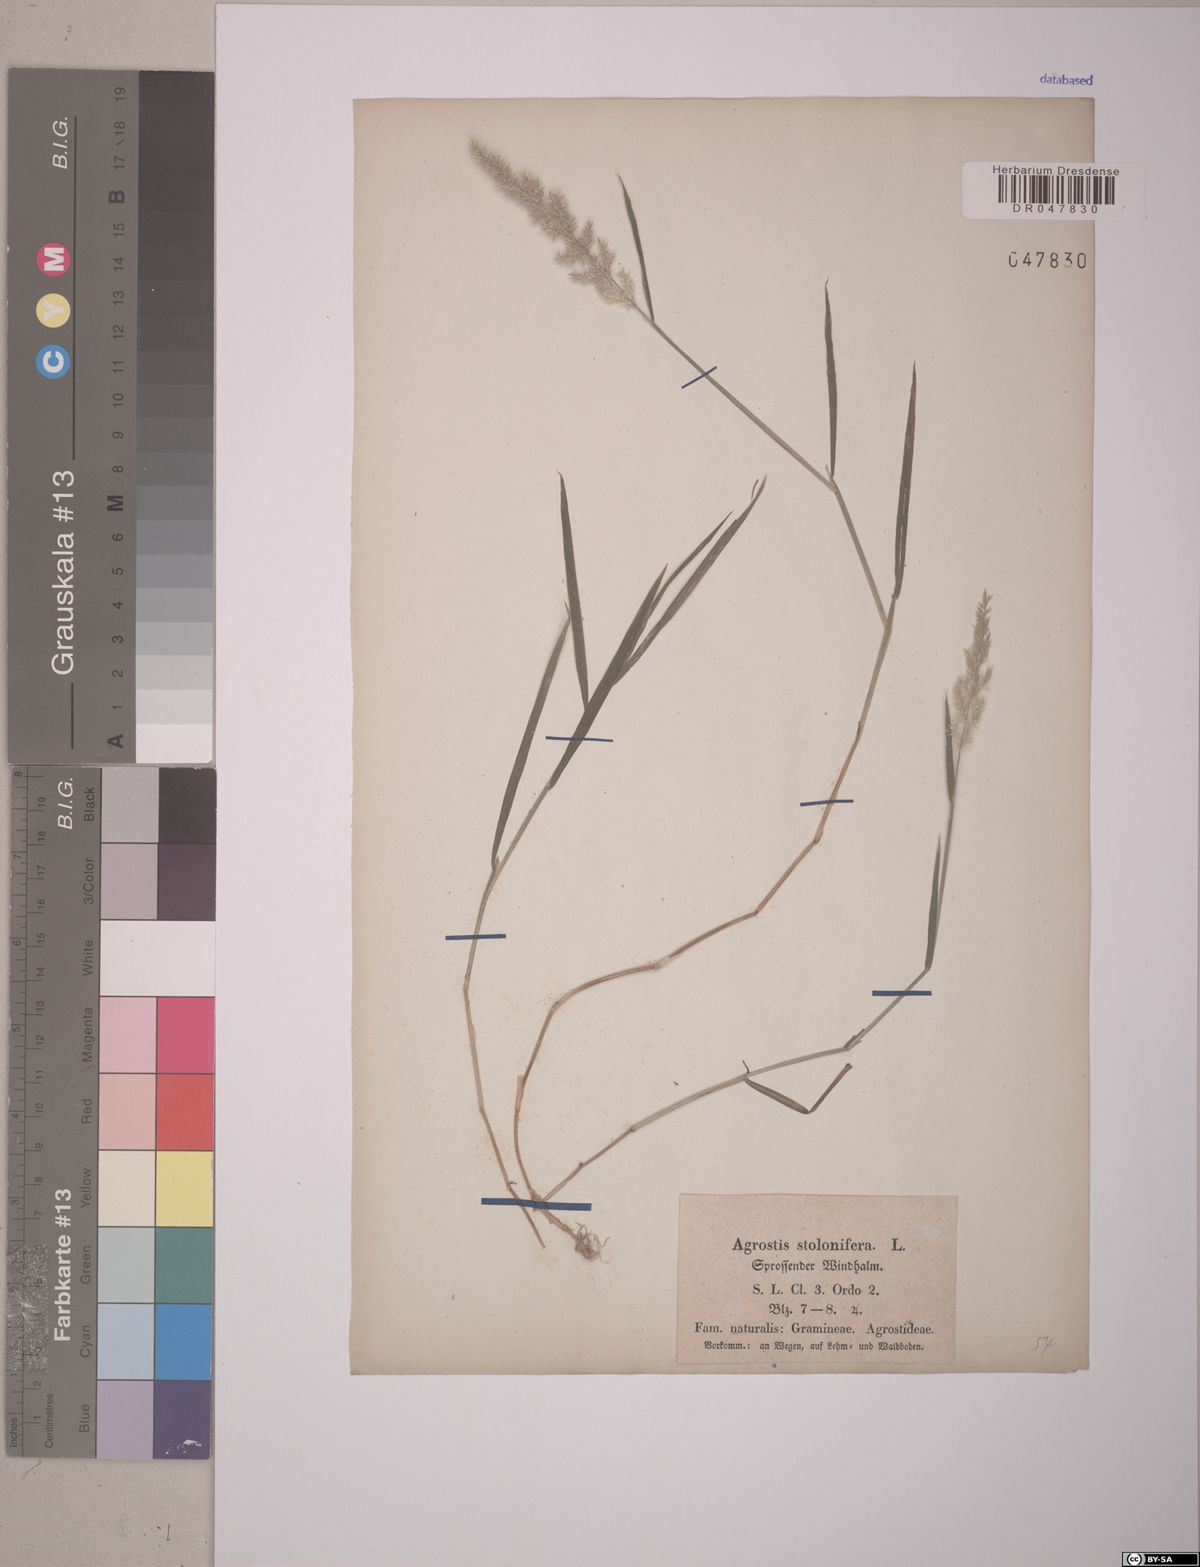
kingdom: Plantae
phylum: Tracheophyta
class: Liliopsida
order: Poales
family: Poaceae
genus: Agrostis
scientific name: Agrostis stolonifera
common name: Creeping bentgrass
